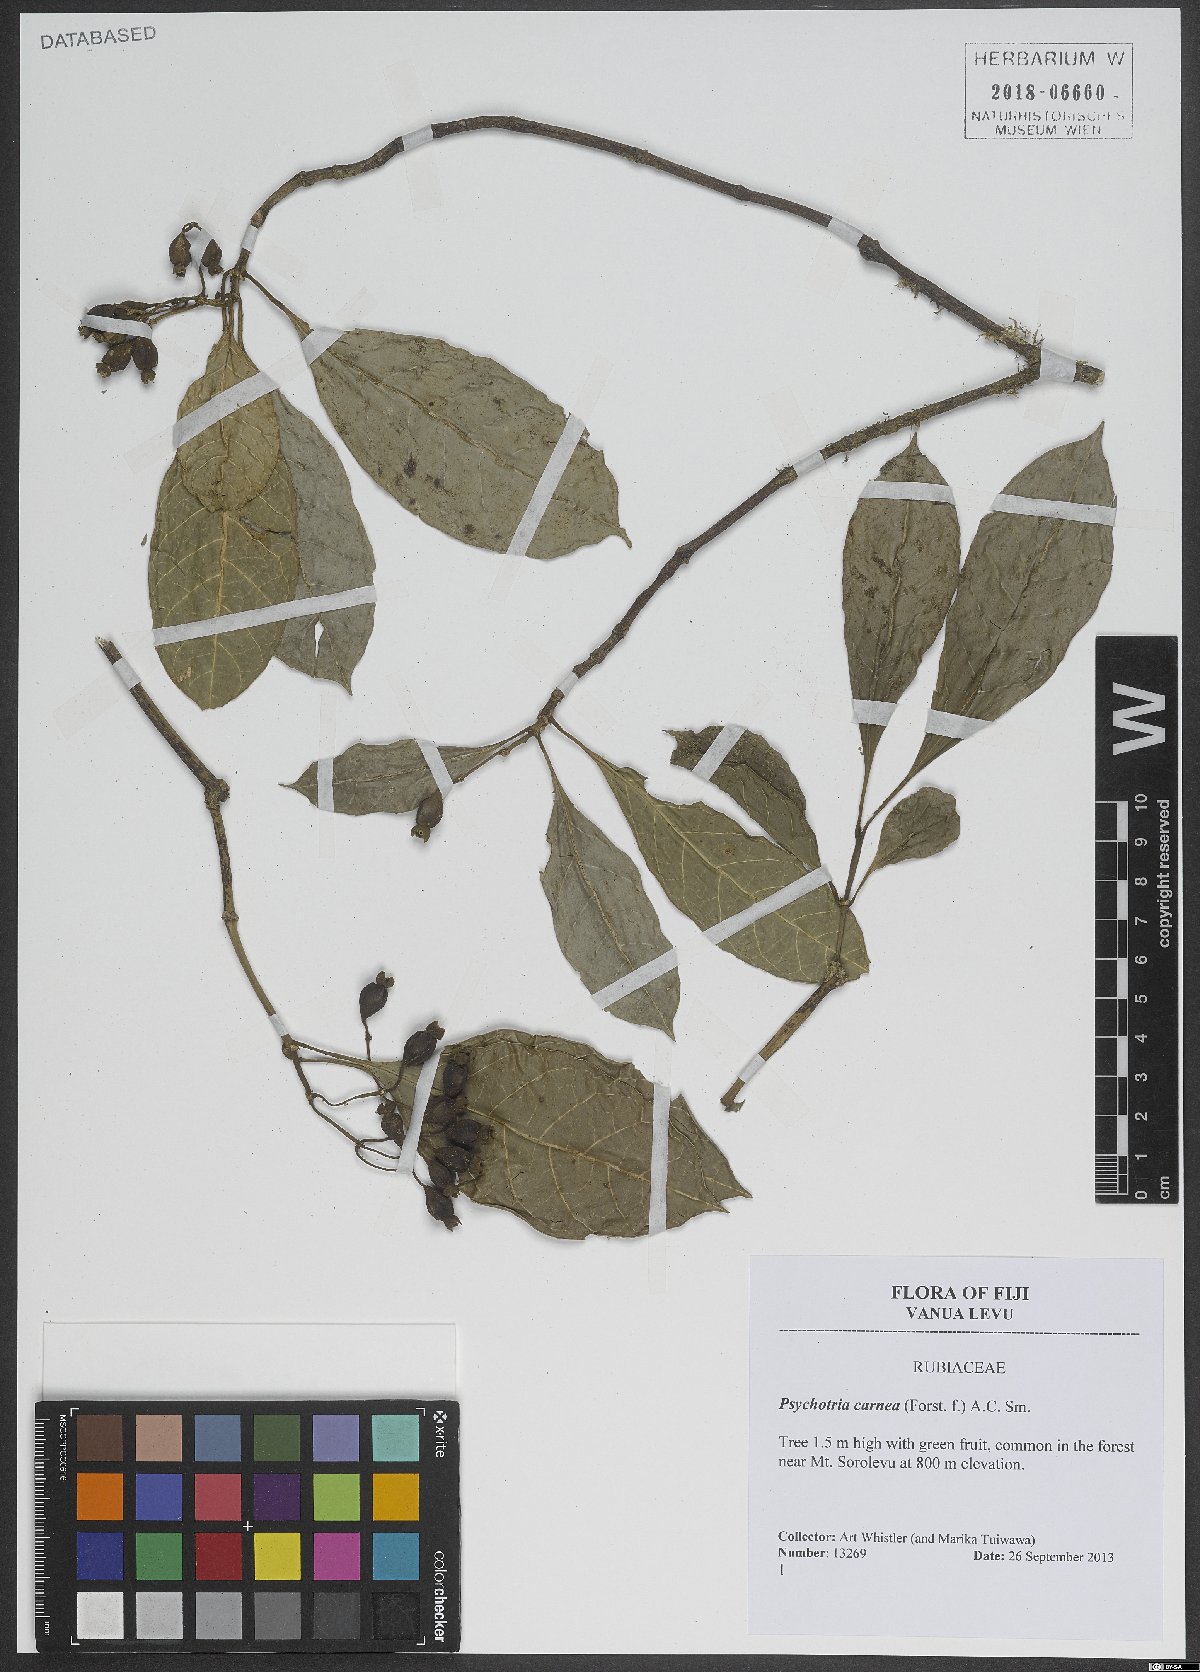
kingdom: Plantae
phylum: Tracheophyta
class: Magnoliopsida
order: Gentianales
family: Rubiaceae
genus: Eumachia
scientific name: Eumachia carnea
